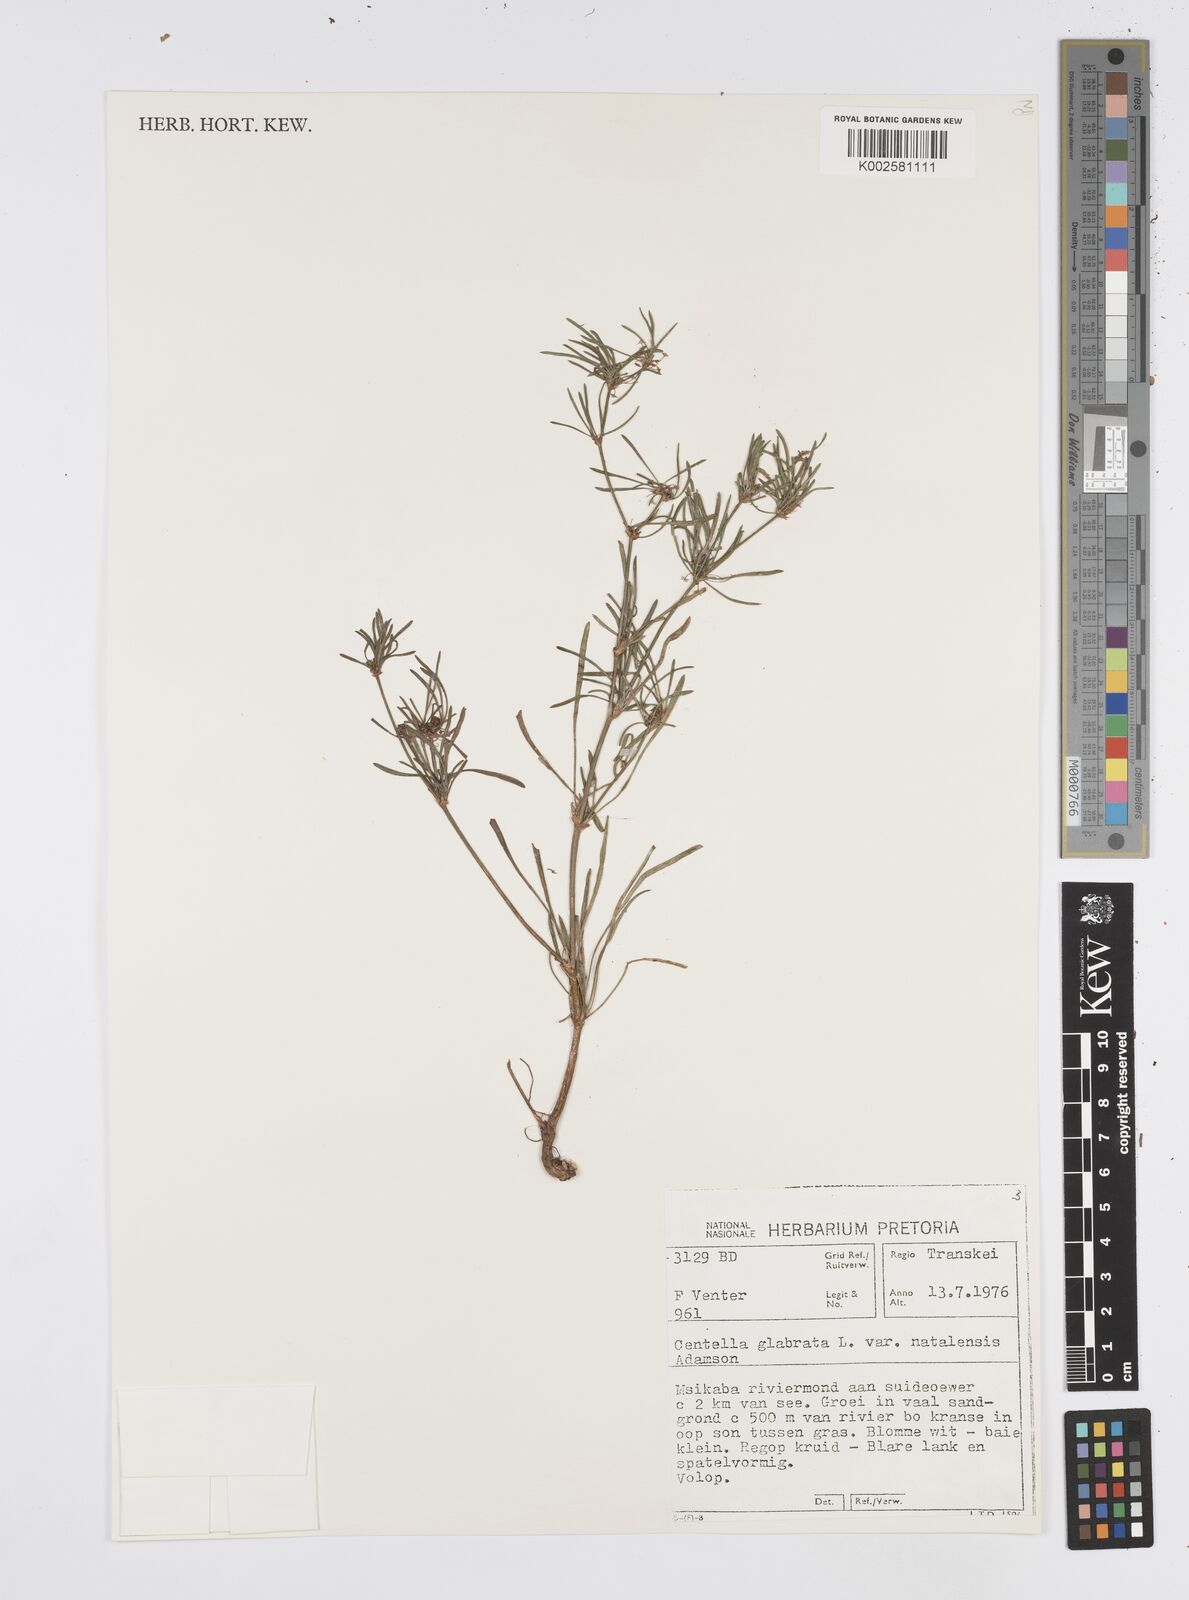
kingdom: Plantae
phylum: Tracheophyta
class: Magnoliopsida
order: Apiales
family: Apiaceae
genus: Centella
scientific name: Centella glabrata
